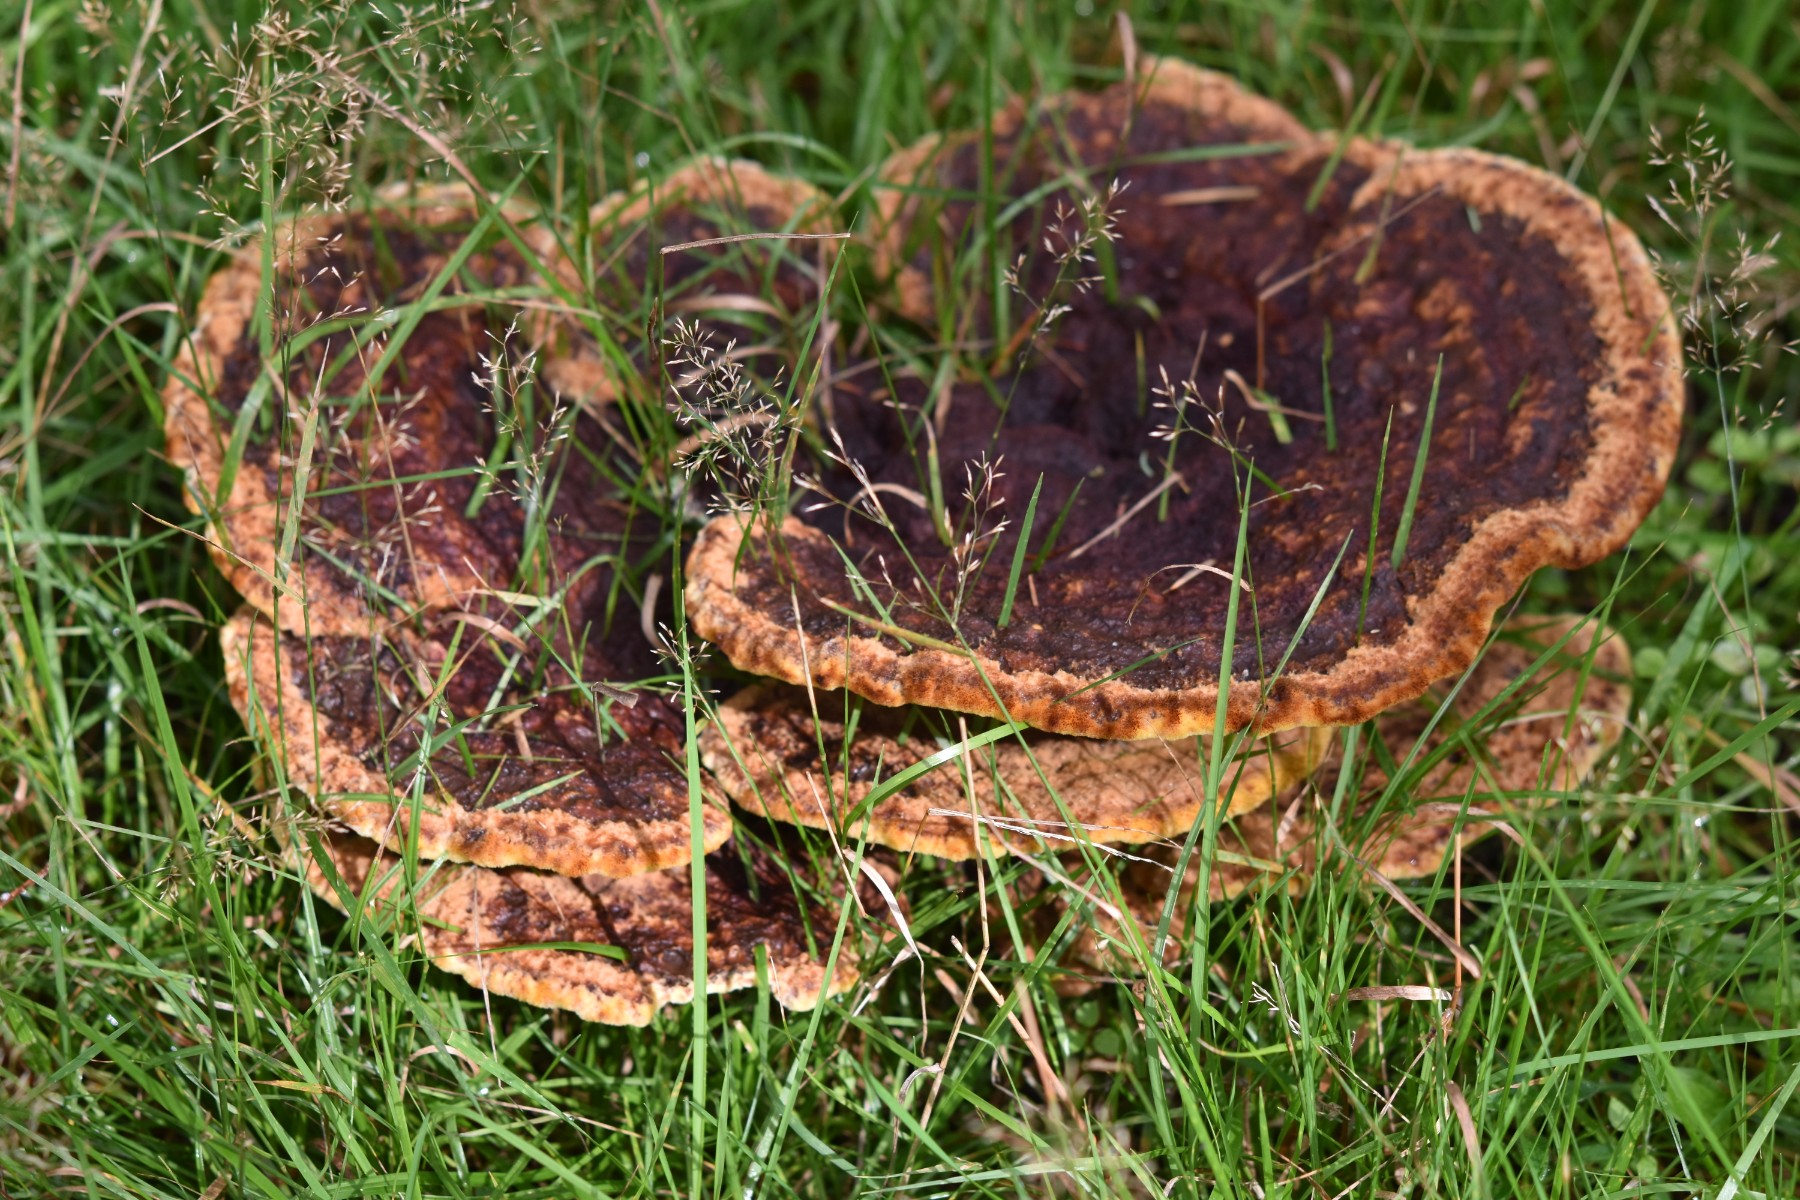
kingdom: Fungi
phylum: Basidiomycota
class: Agaricomycetes
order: Polyporales
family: Laetiporaceae
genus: Phaeolus
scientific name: Phaeolus schweinitzii
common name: brunporesvamp
